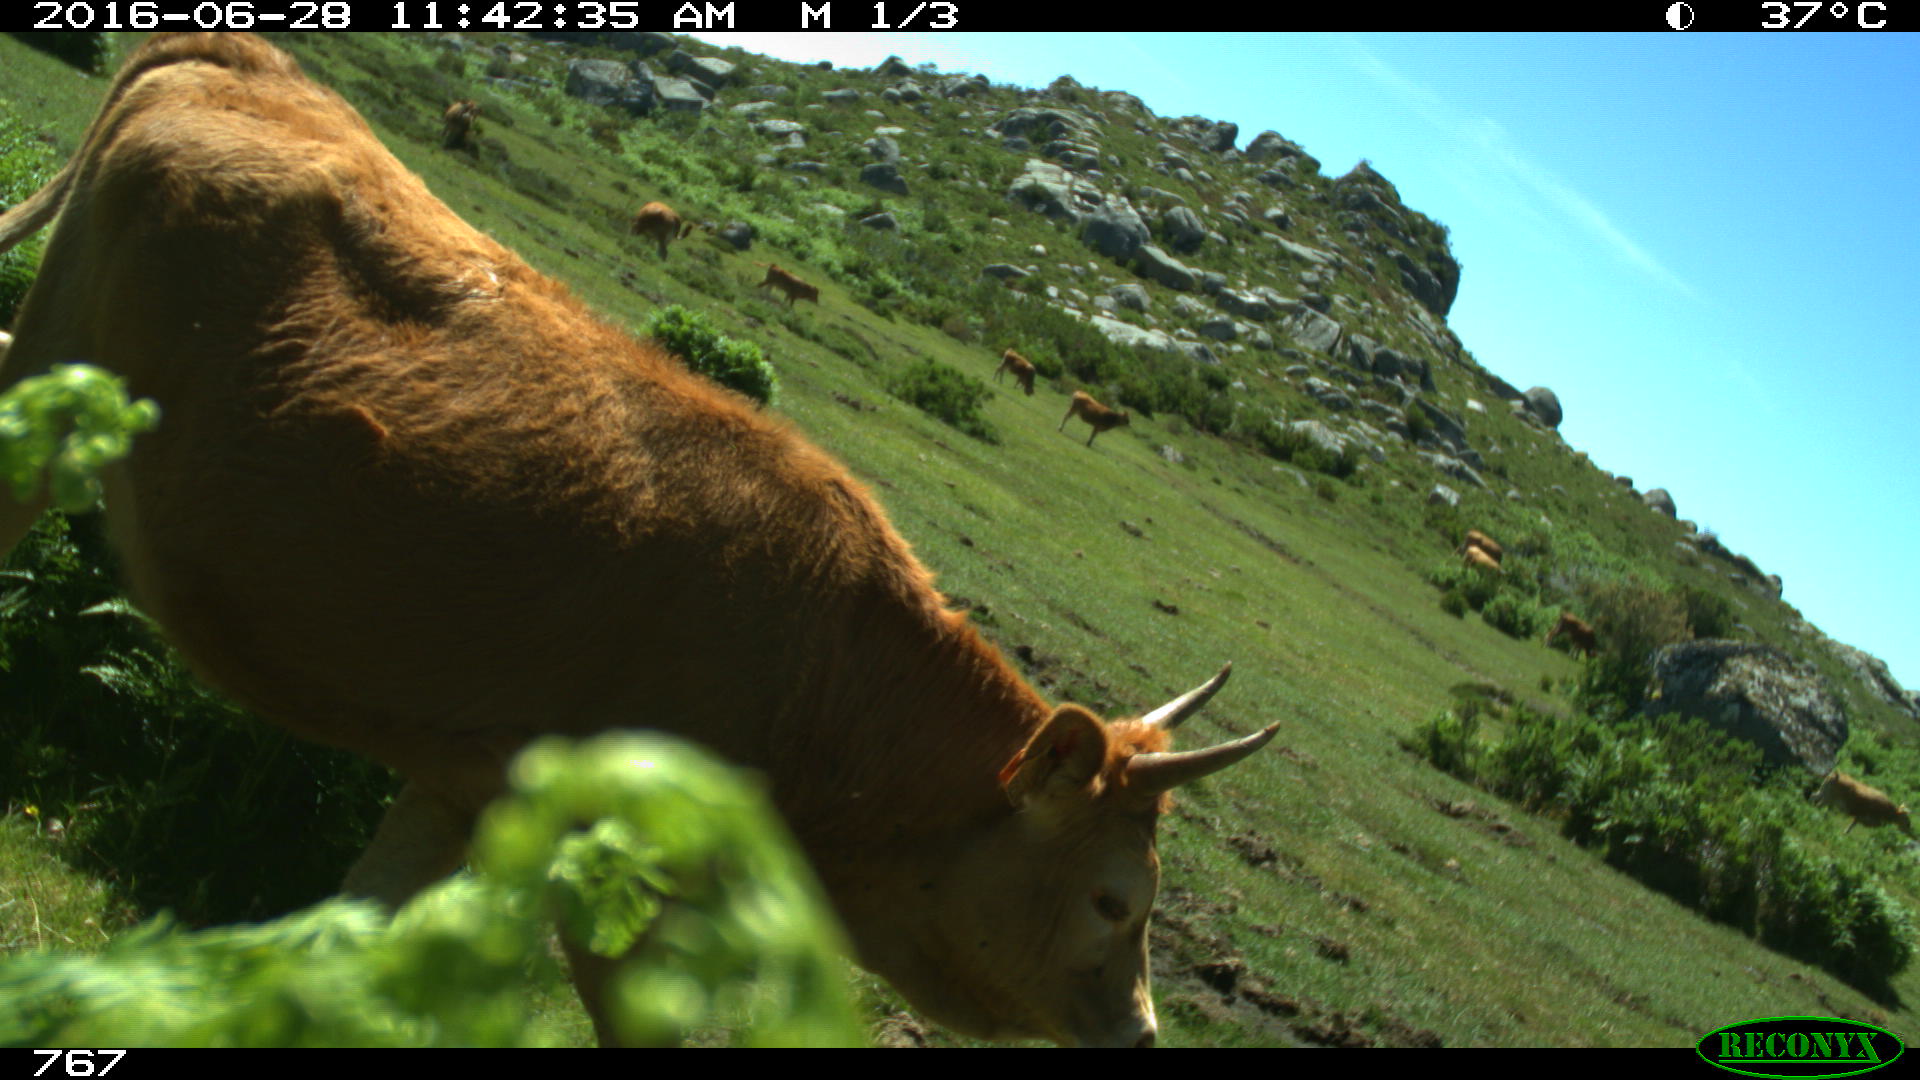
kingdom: Animalia
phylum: Chordata
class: Mammalia
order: Artiodactyla
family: Bovidae
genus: Bos
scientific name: Bos taurus
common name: Domesticated cattle
